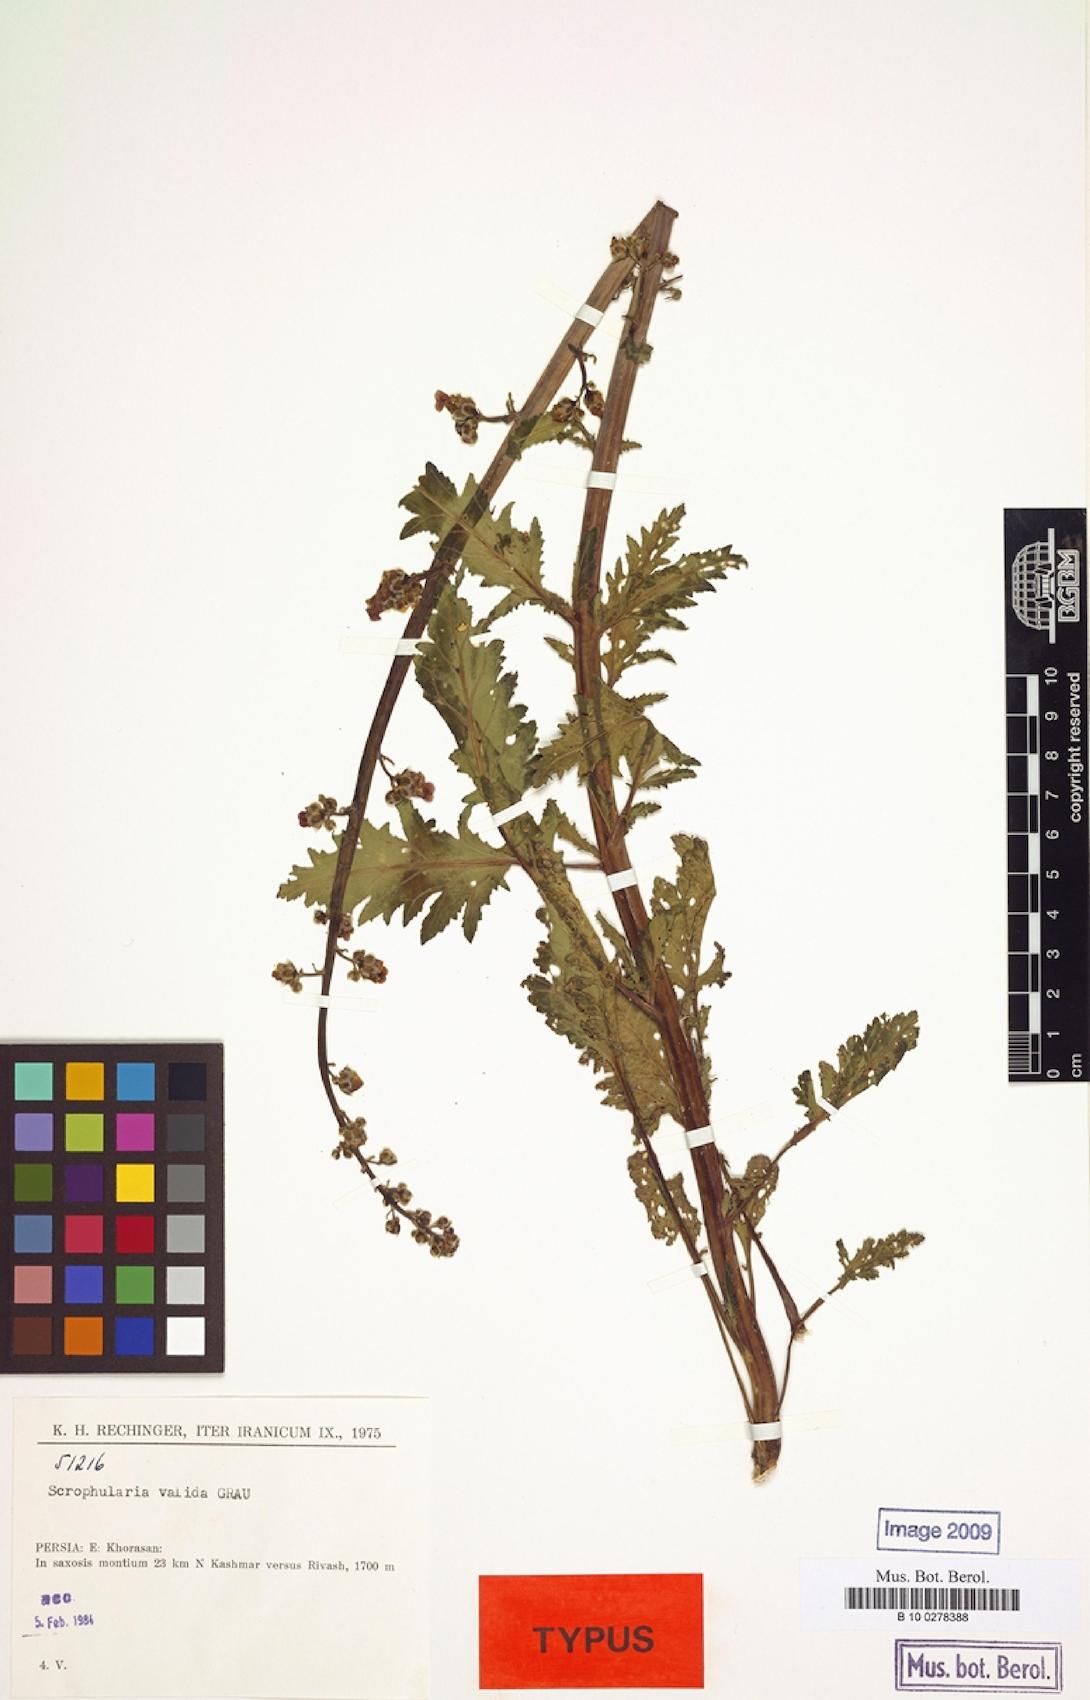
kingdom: Plantae
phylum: Tracheophyta
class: Magnoliopsida
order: Lamiales
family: Scrophulariaceae
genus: Scrophularia
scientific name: Scrophularia valida
